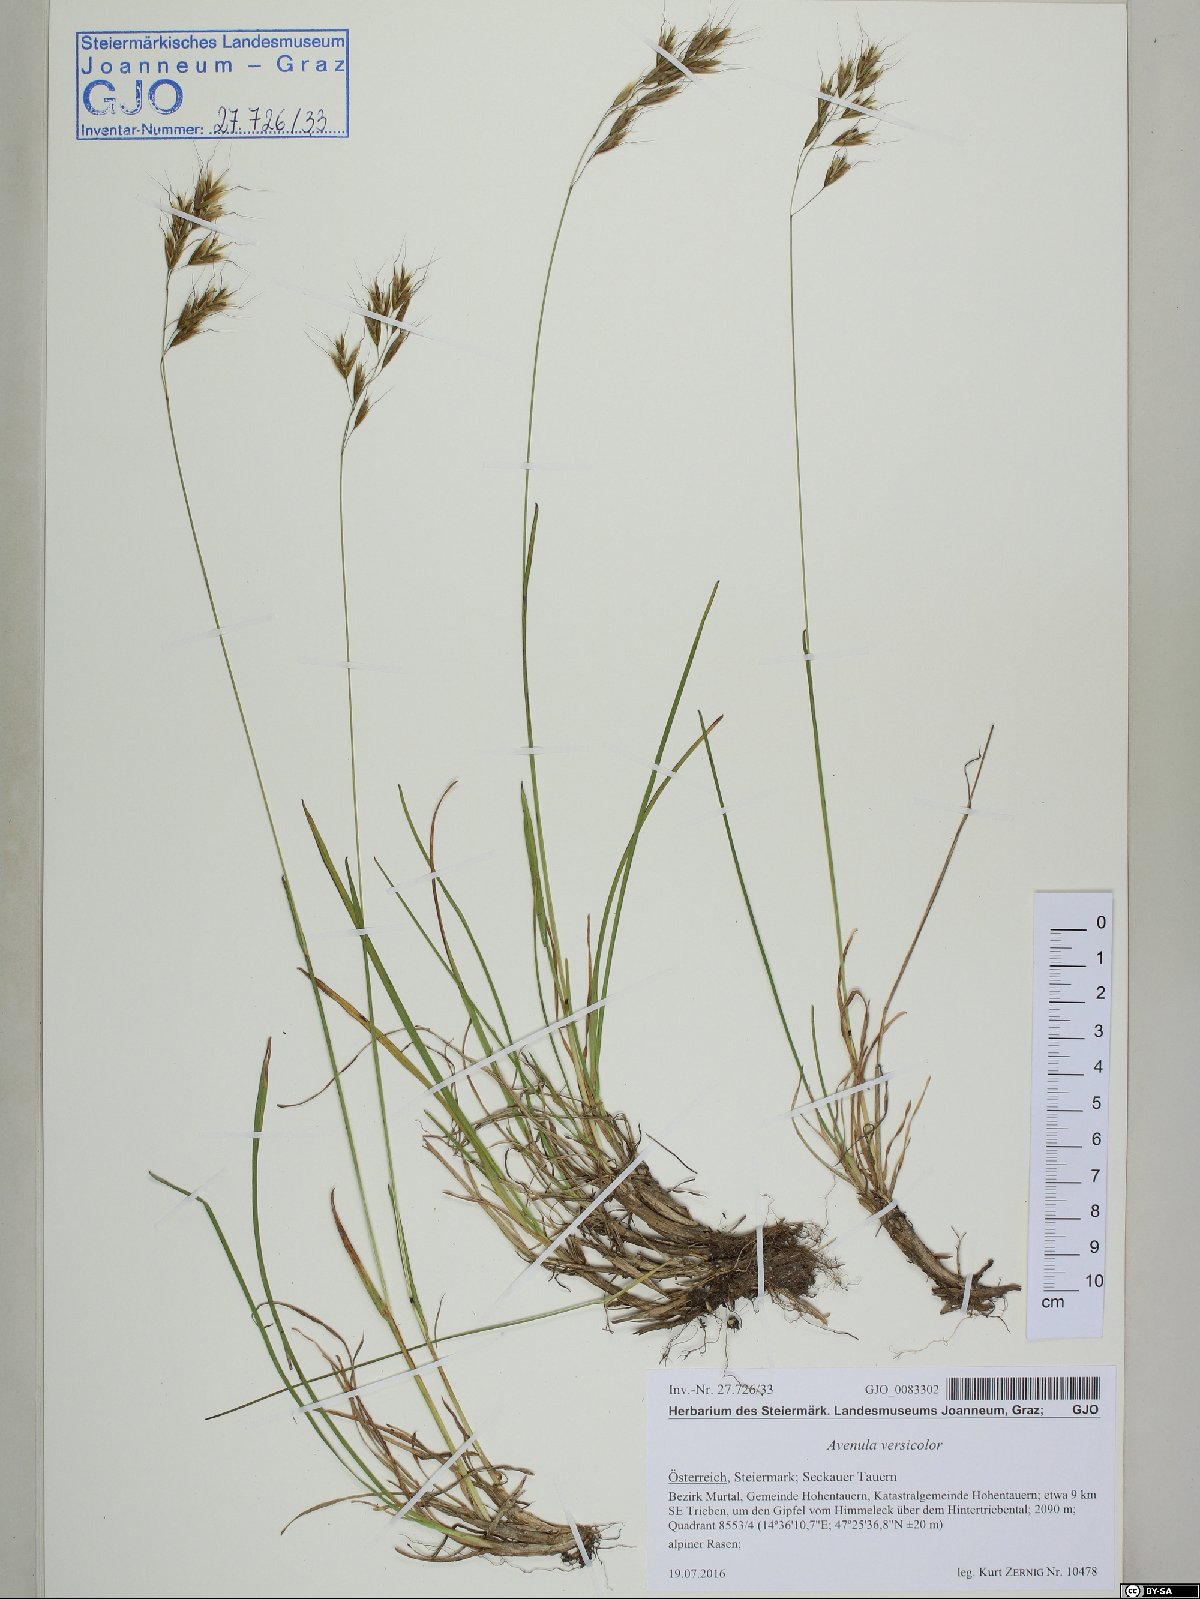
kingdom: Plantae
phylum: Tracheophyta
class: Liliopsida
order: Poales
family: Poaceae
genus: Helictochloa
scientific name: Helictochloa versicolor
